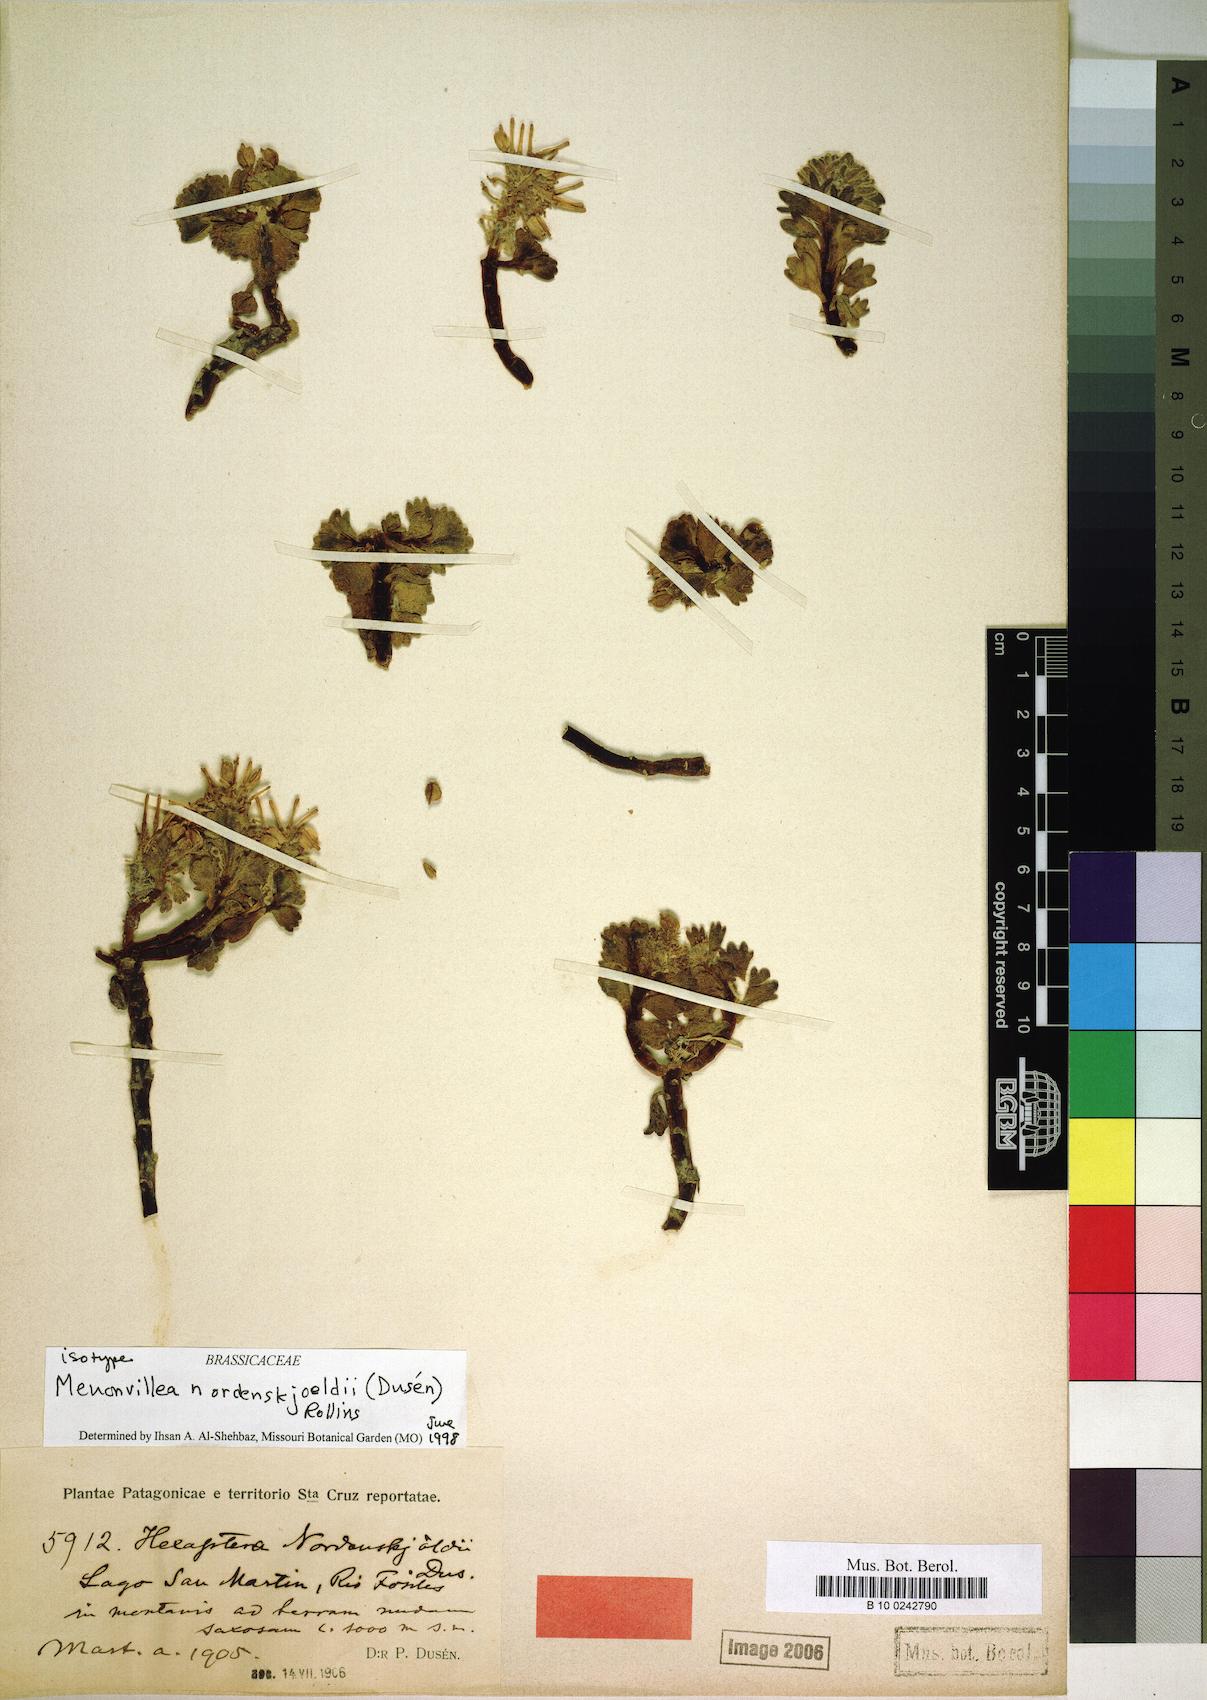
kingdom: Plantae
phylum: Tracheophyta
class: Magnoliopsida
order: Brassicales
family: Brassicaceae
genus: Menonvillea
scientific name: Menonvillea nordenskjoeldii
